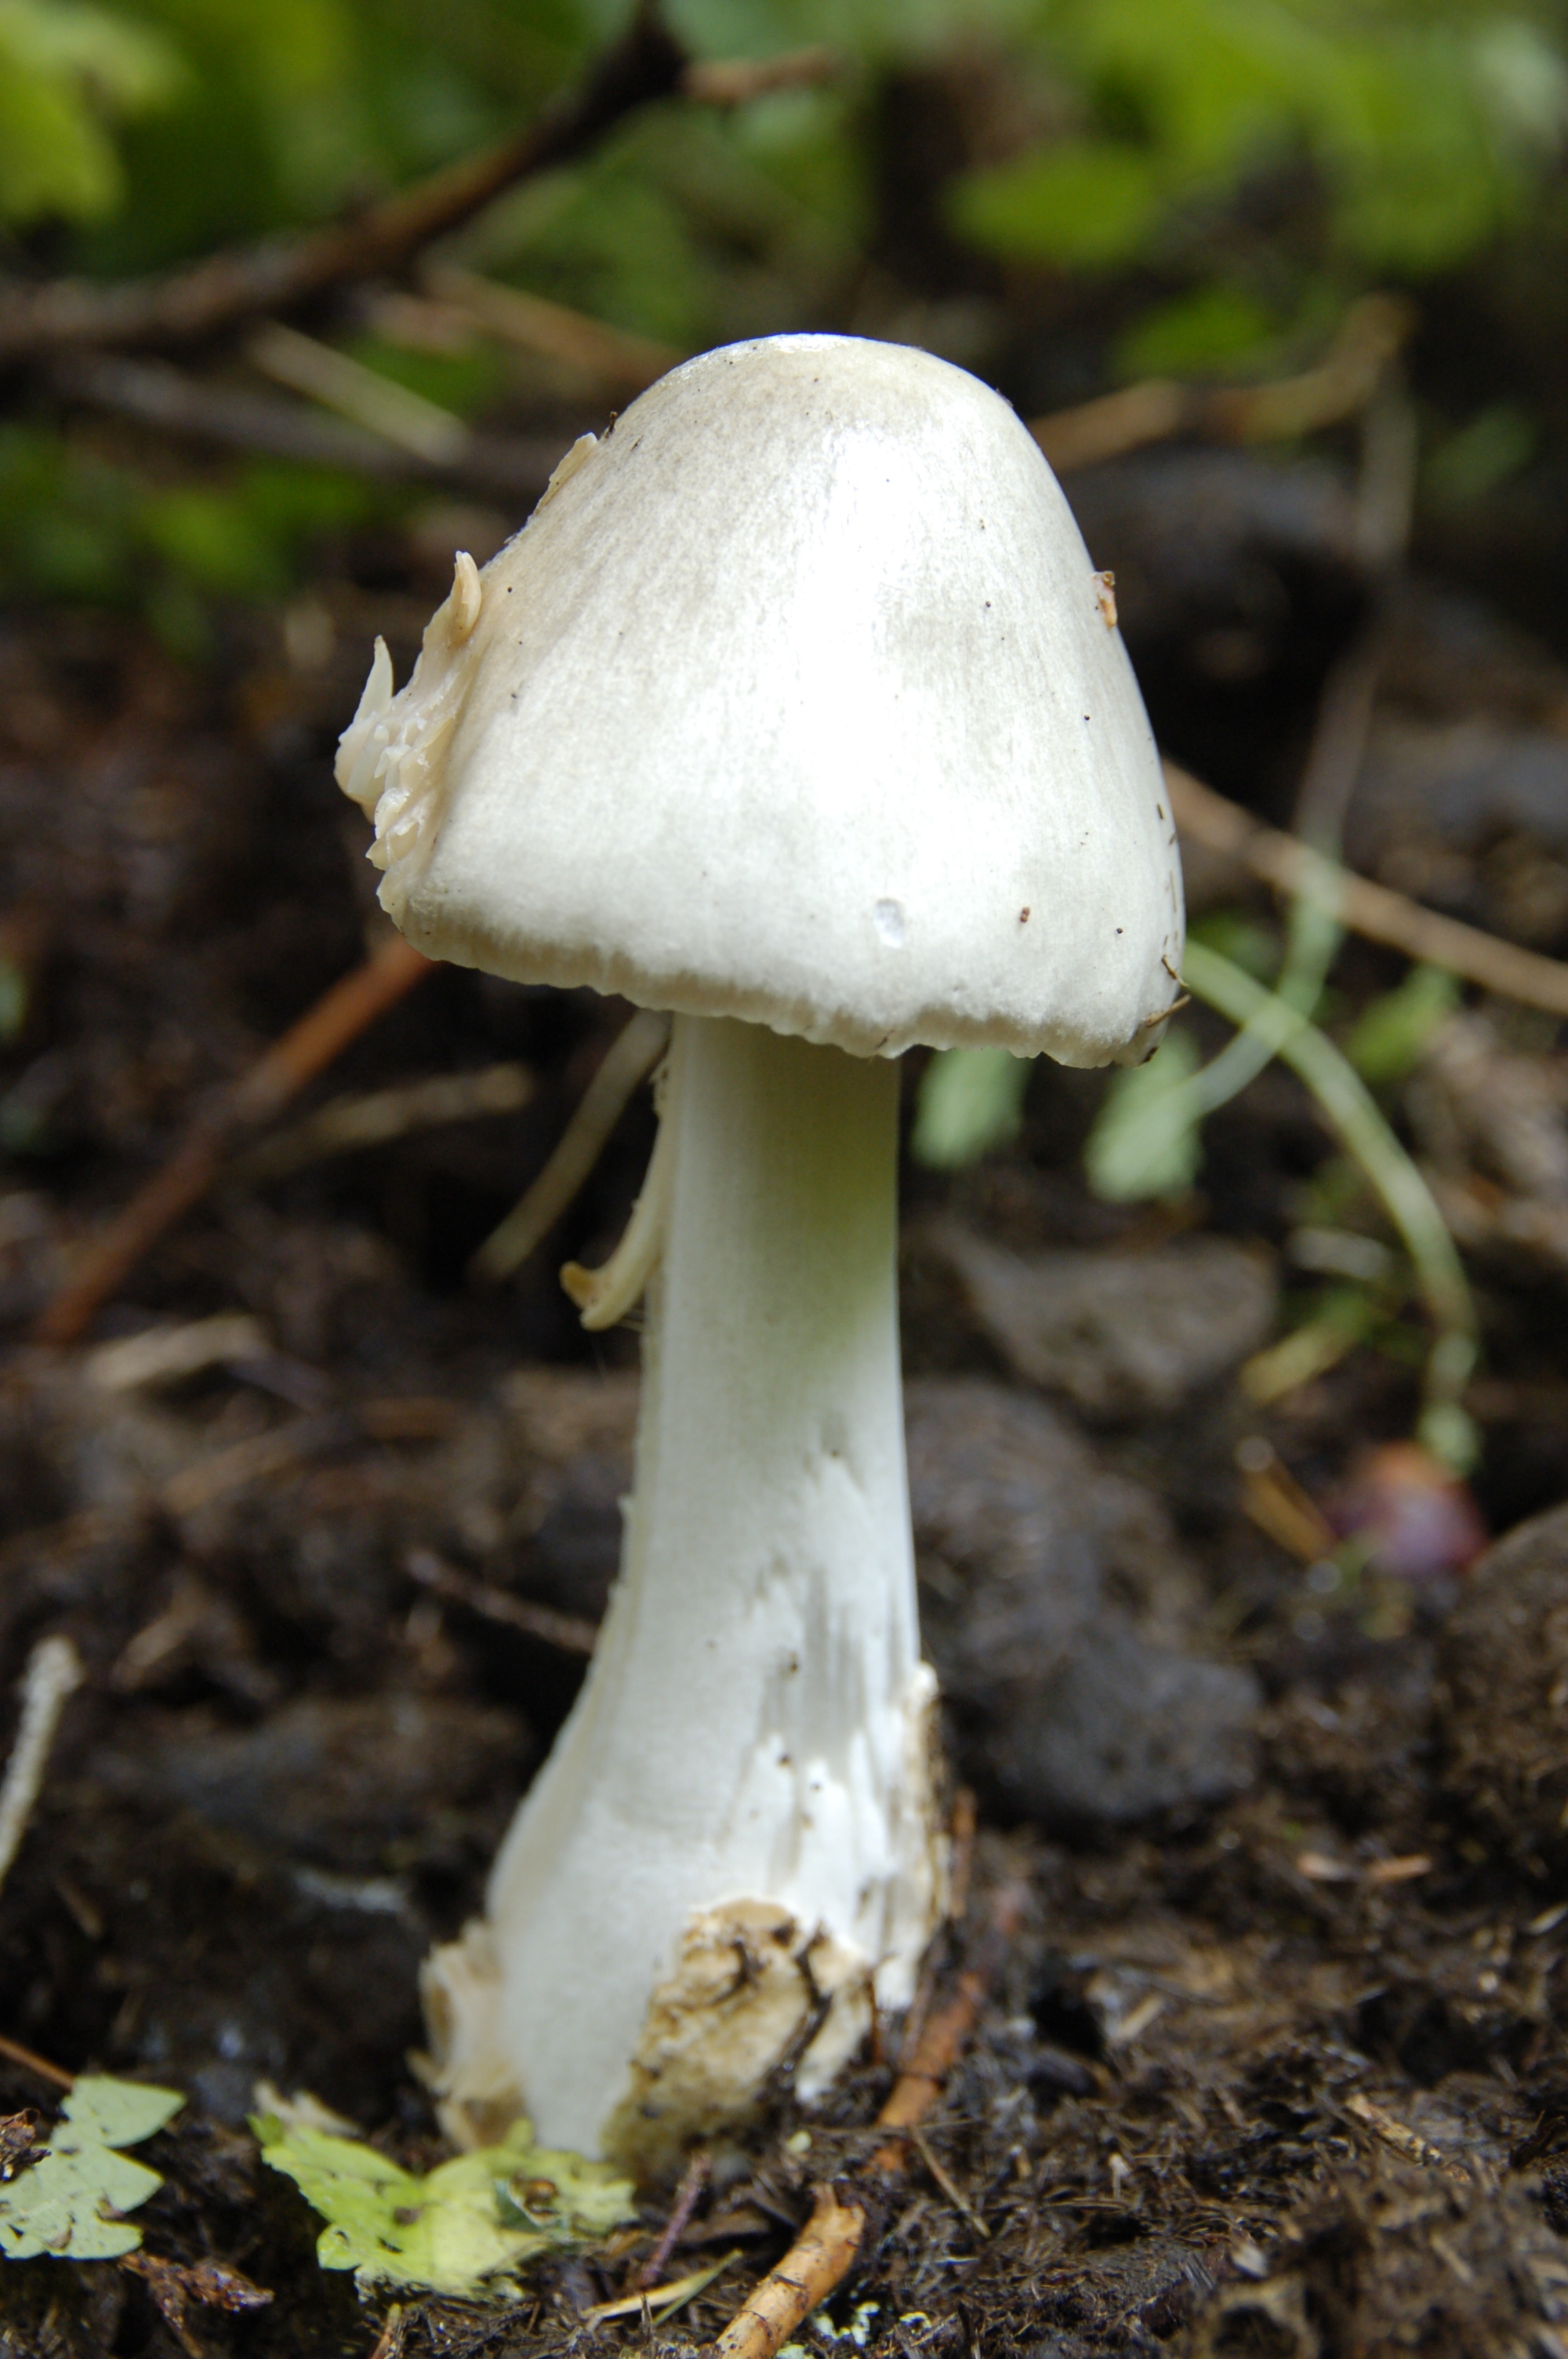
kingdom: Fungi
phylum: Basidiomycota
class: Agaricomycetes
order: Agaricales
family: Pluteaceae
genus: Volvopluteus
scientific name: Volvopluteus gloiocephalus
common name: Stubble rosegill
